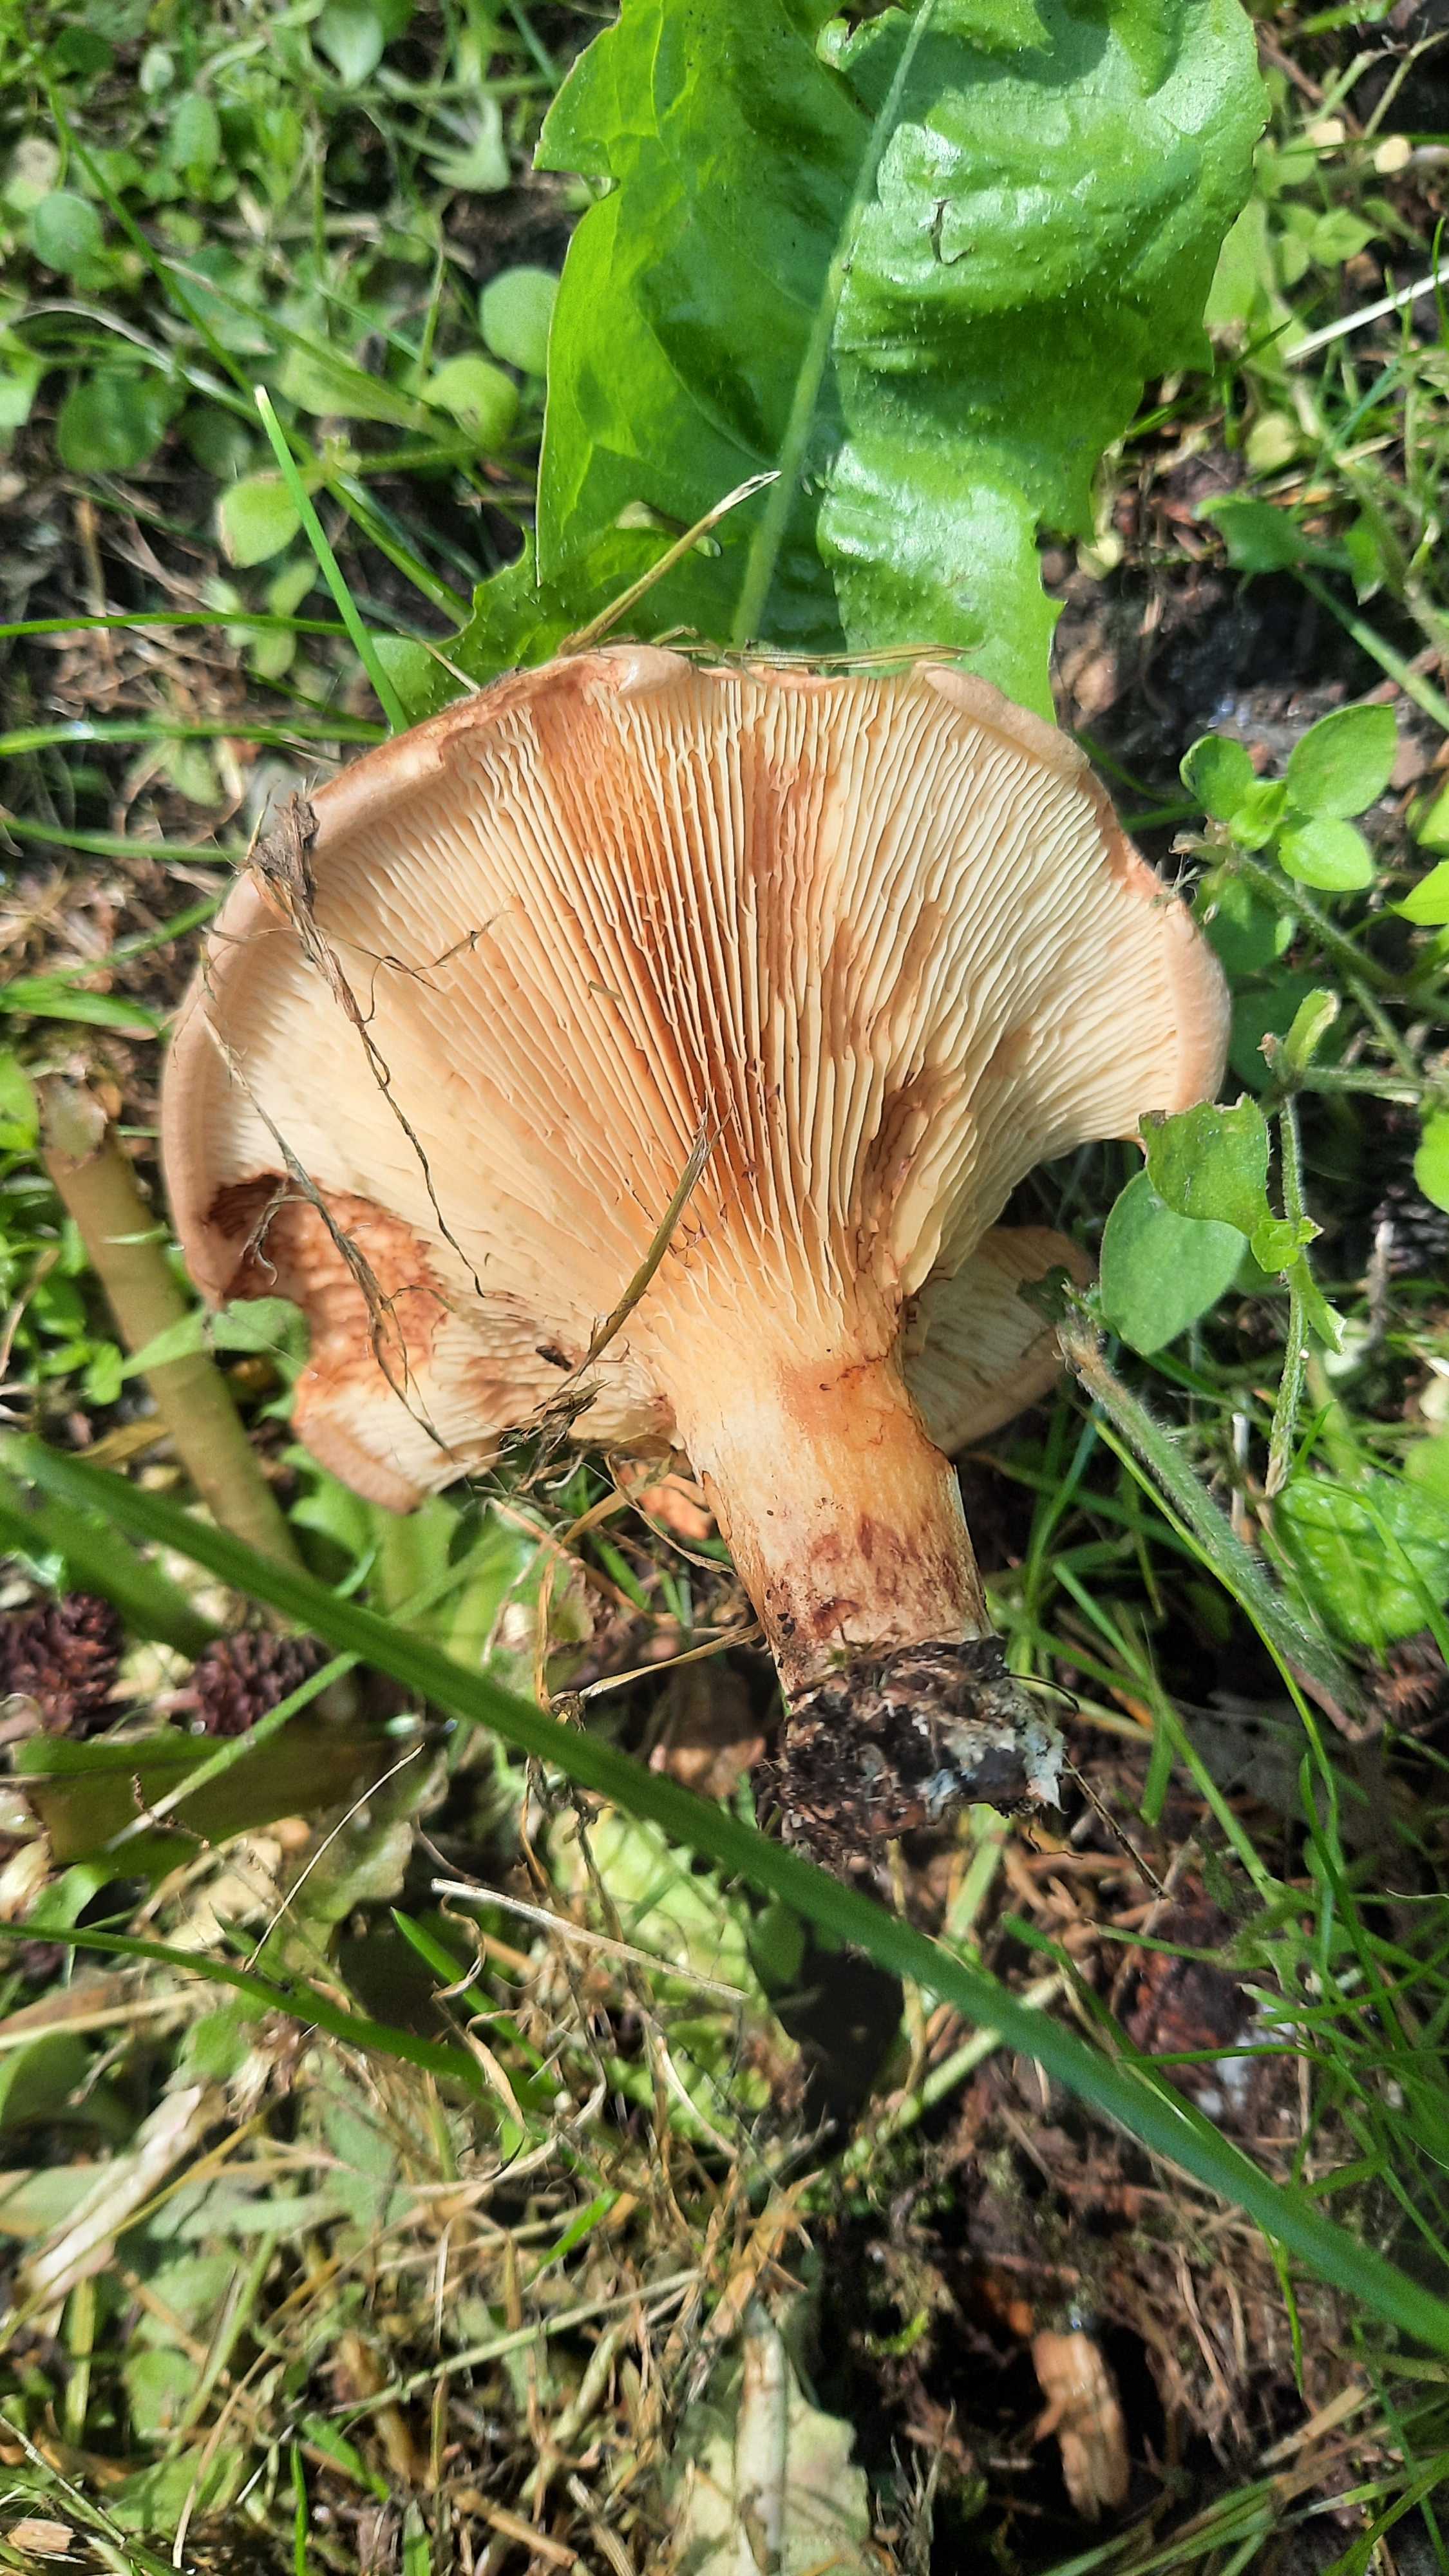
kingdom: Fungi
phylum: Basidiomycota
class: Agaricomycetes
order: Boletales
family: Paxillaceae
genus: Paxillus
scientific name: Paxillus
